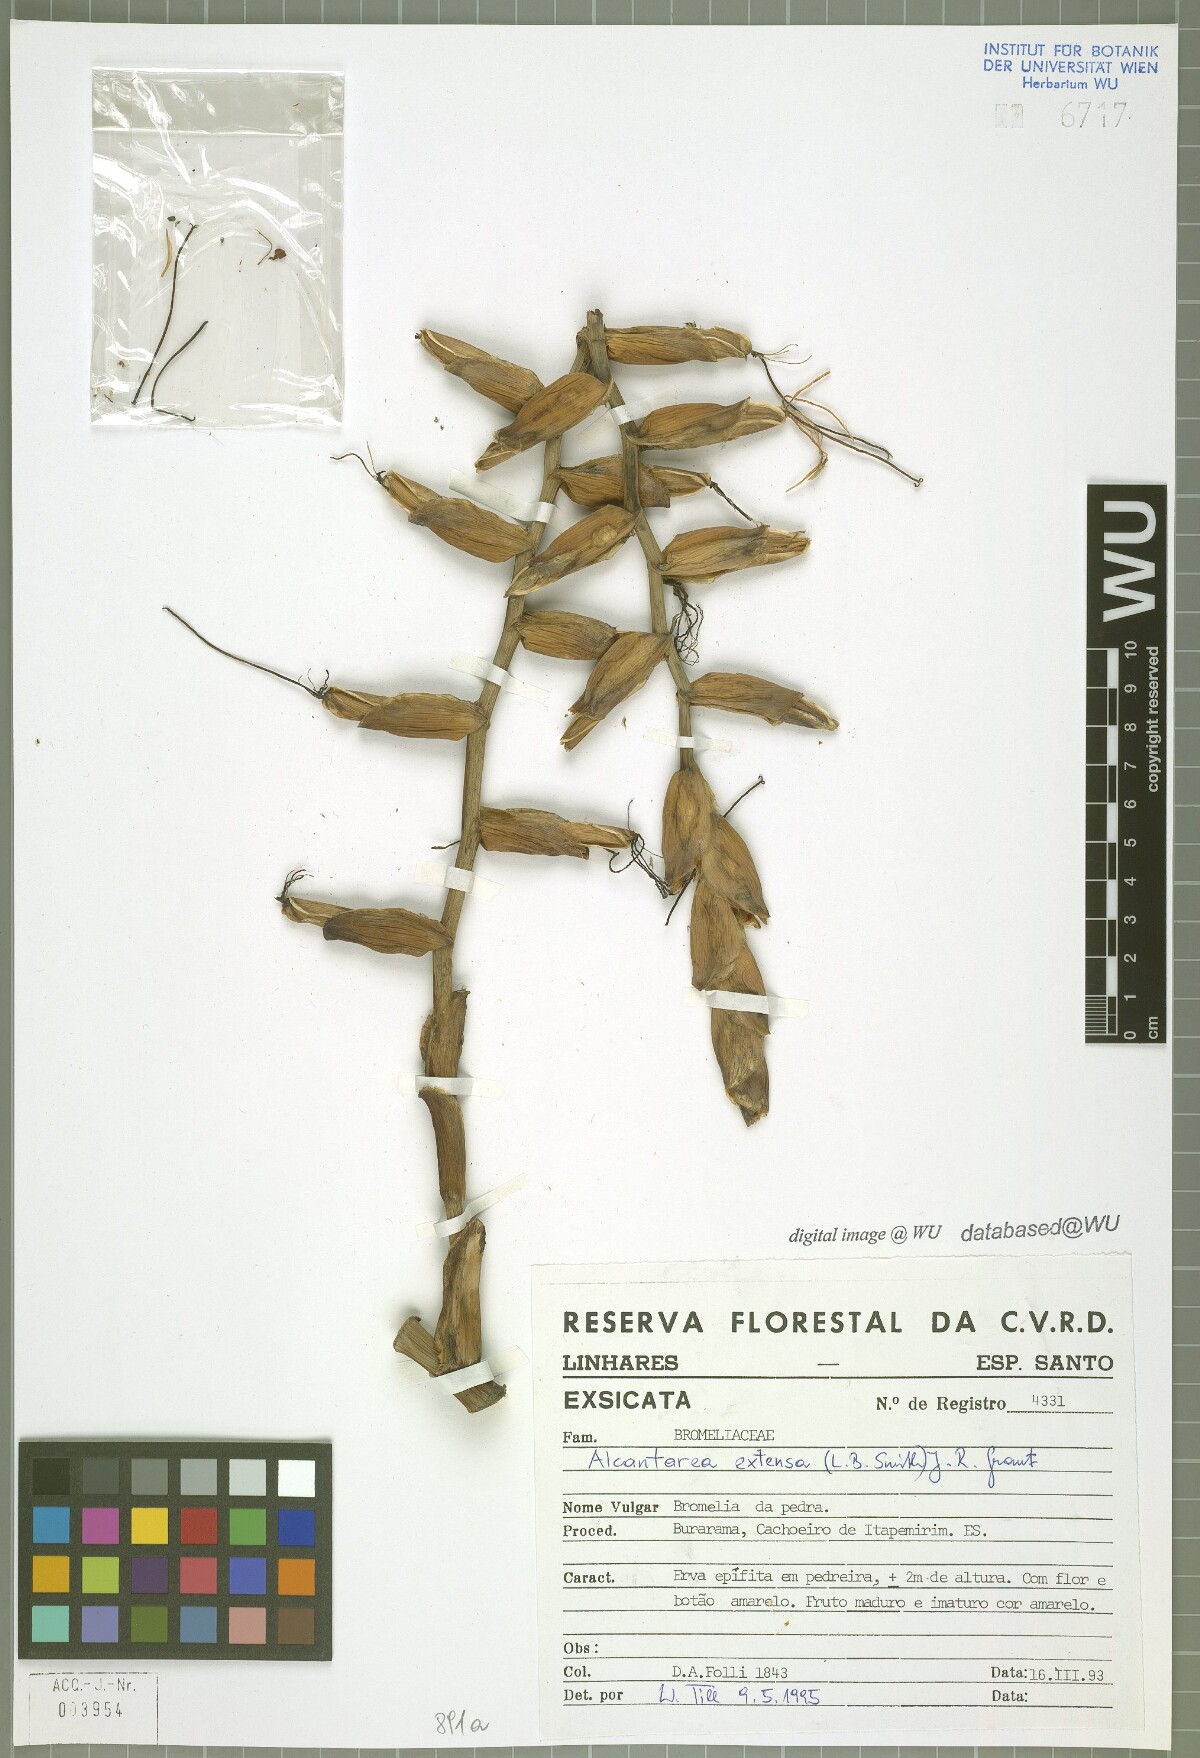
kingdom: Plantae
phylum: Tracheophyta
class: Liliopsida
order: Poales
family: Bromeliaceae
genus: Alcantarea
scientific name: Alcantarea extensa
